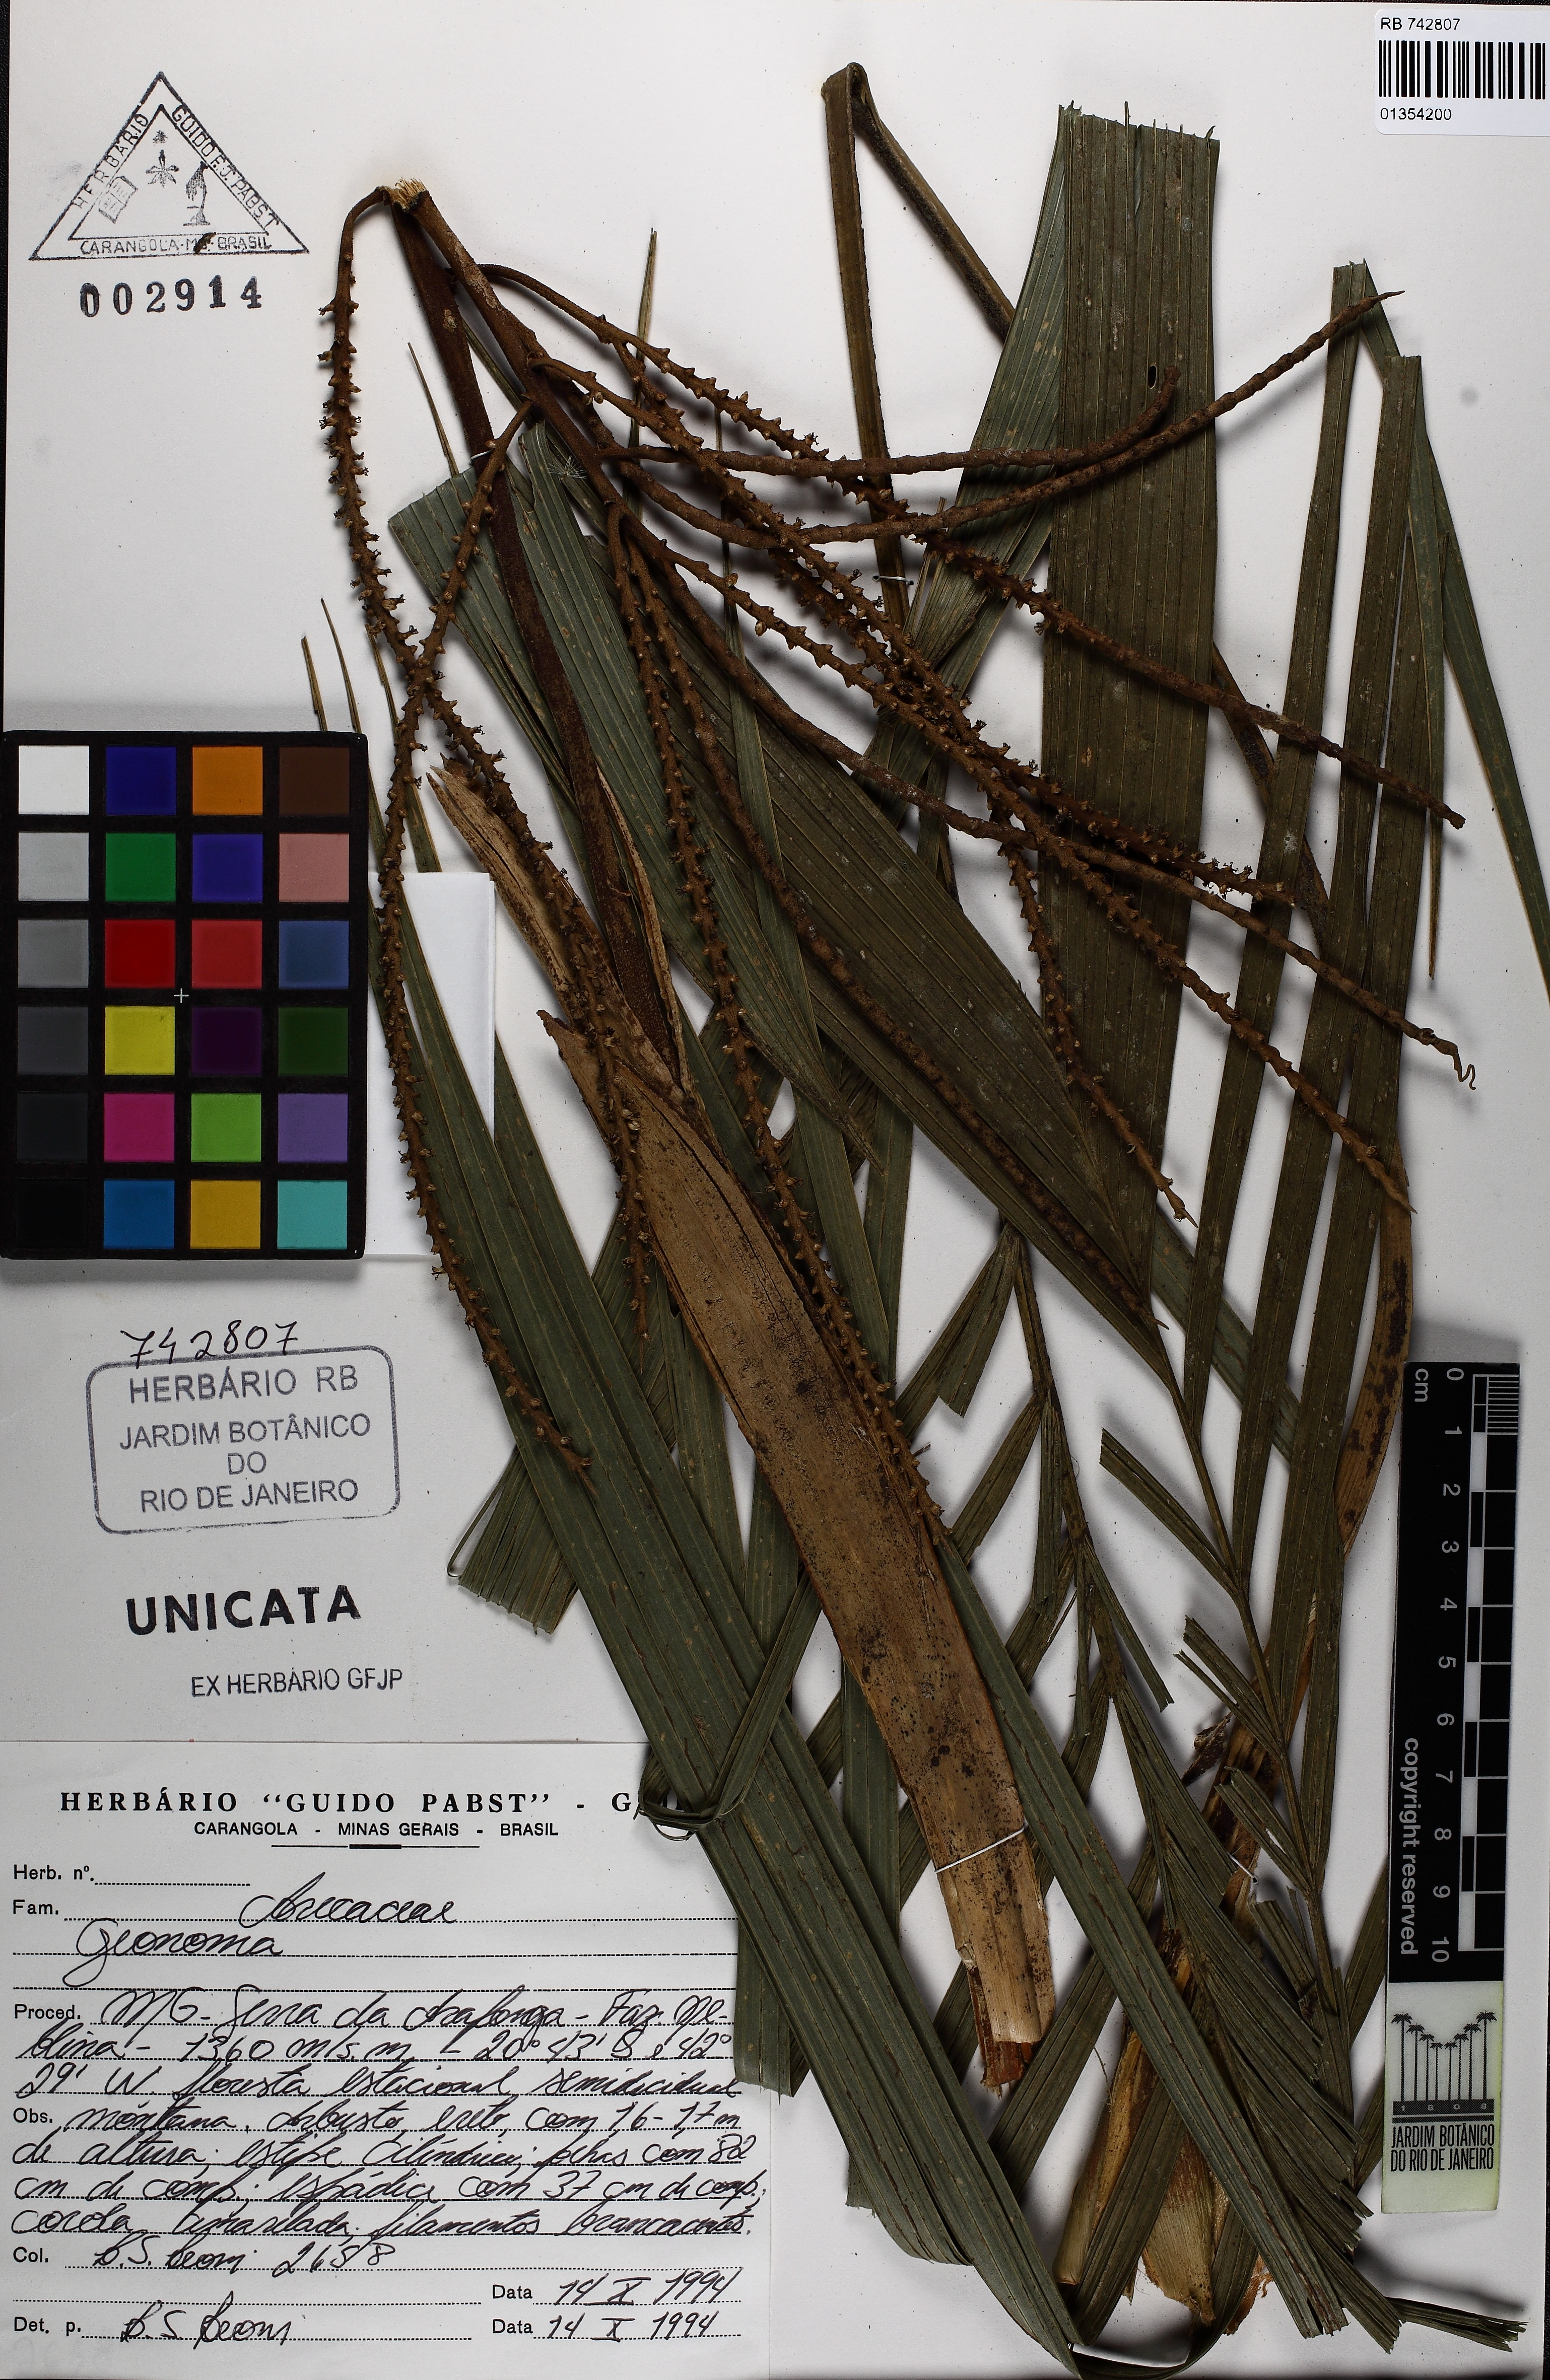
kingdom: Plantae
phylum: Tracheophyta
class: Liliopsida
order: Arecales
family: Arecaceae
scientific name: Arecaceae
